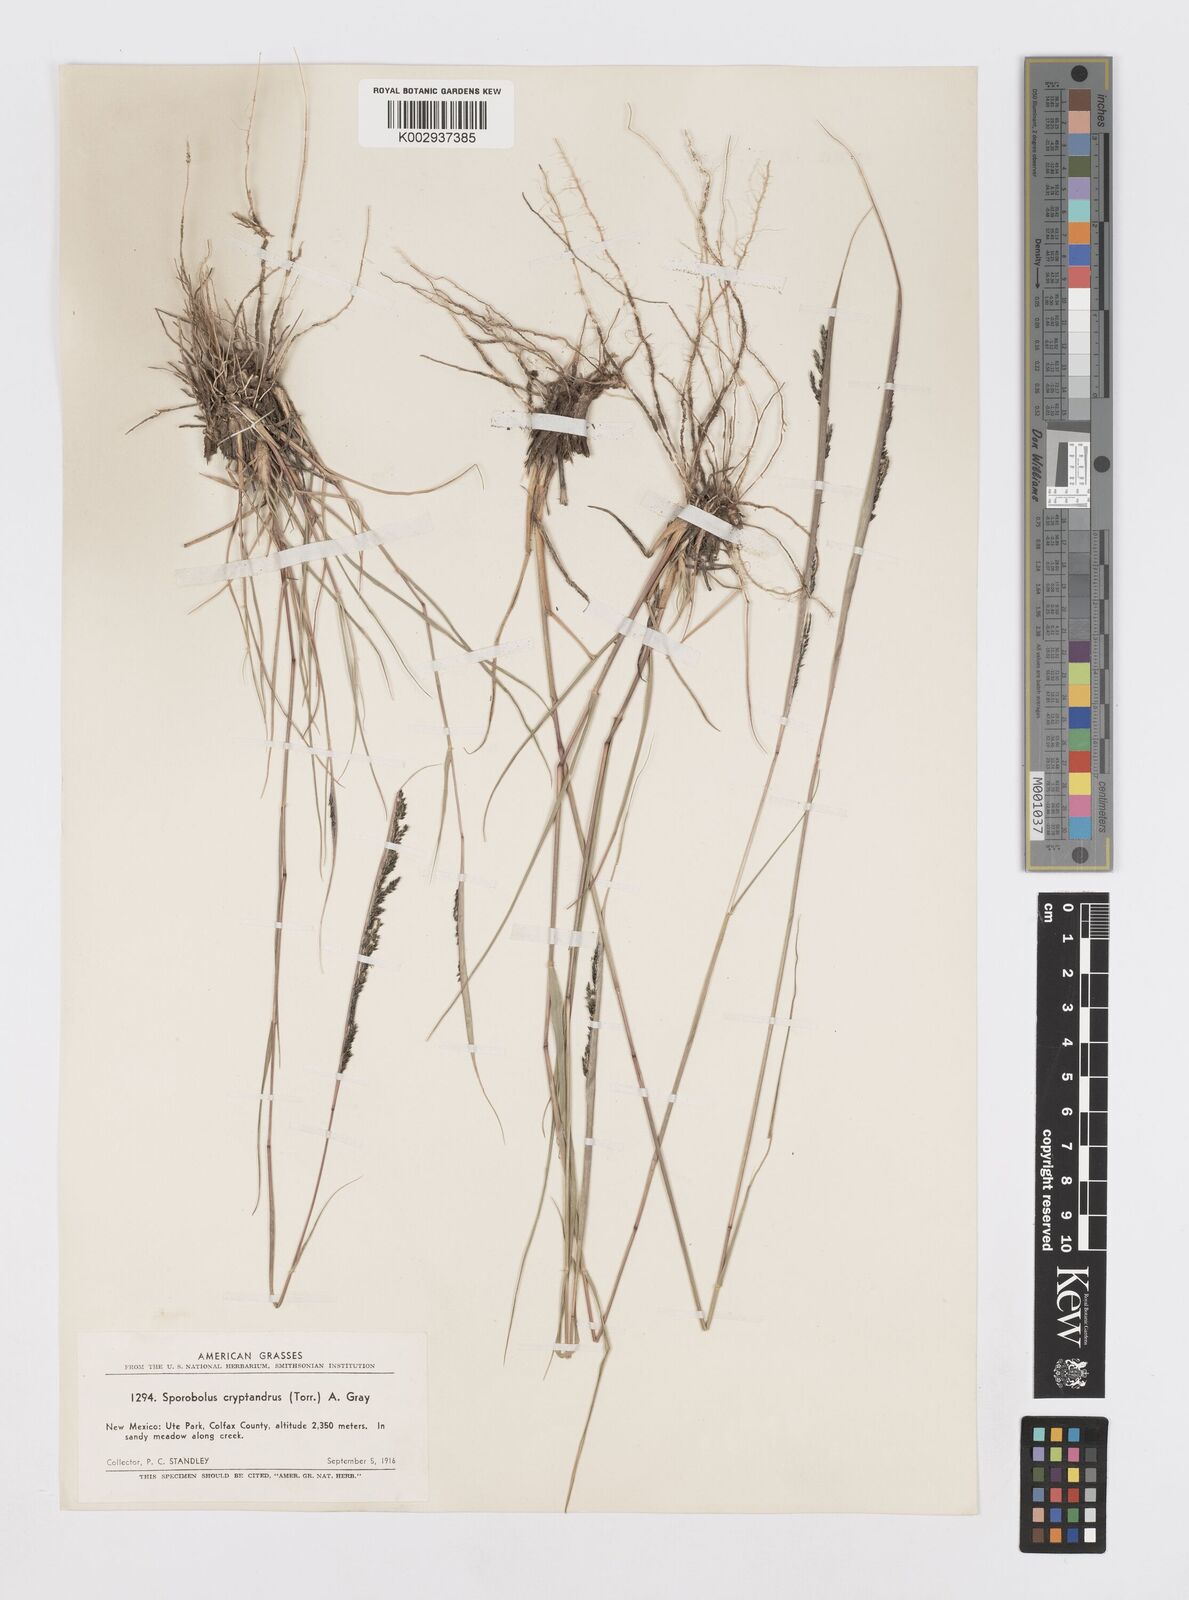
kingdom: Plantae
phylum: Tracheophyta
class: Liliopsida
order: Poales
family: Poaceae
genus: Sporobolus
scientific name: Sporobolus cryptandrus
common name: Sand dropseed
